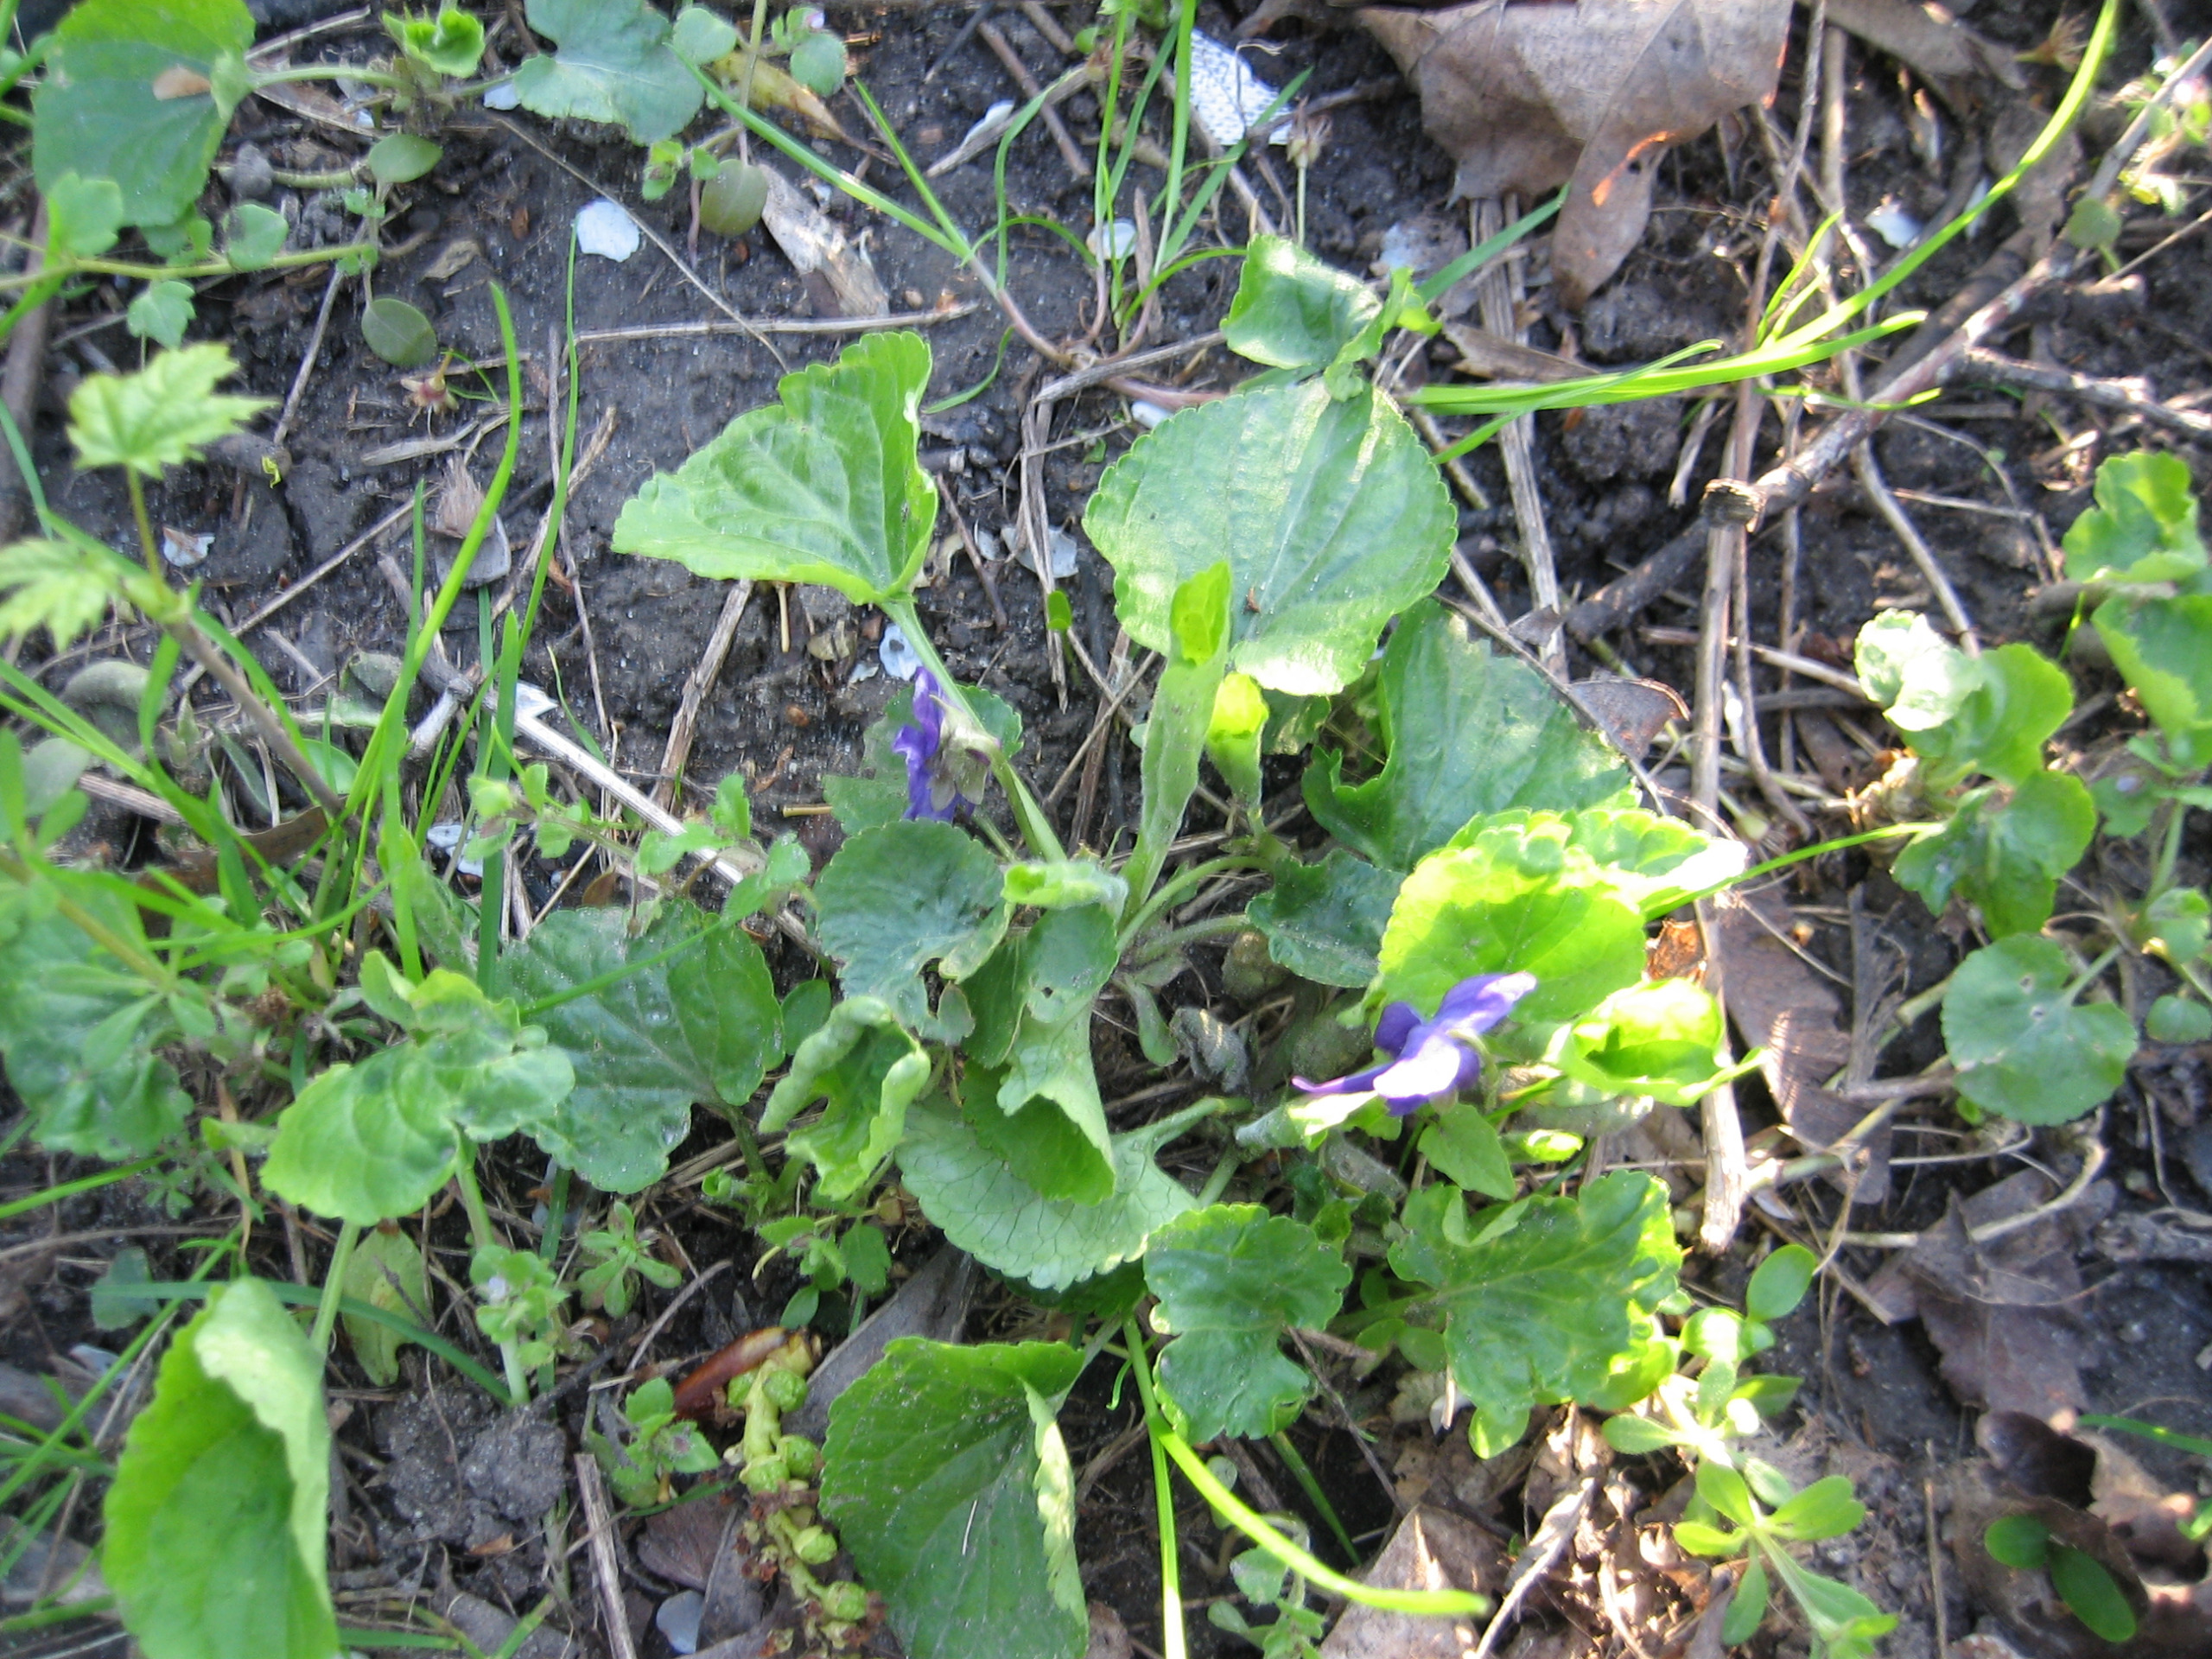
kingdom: Plantae
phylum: Tracheophyta
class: Magnoliopsida
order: Malpighiales
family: Violaceae
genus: Viola
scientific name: Viola odorata
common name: Marts-viol
